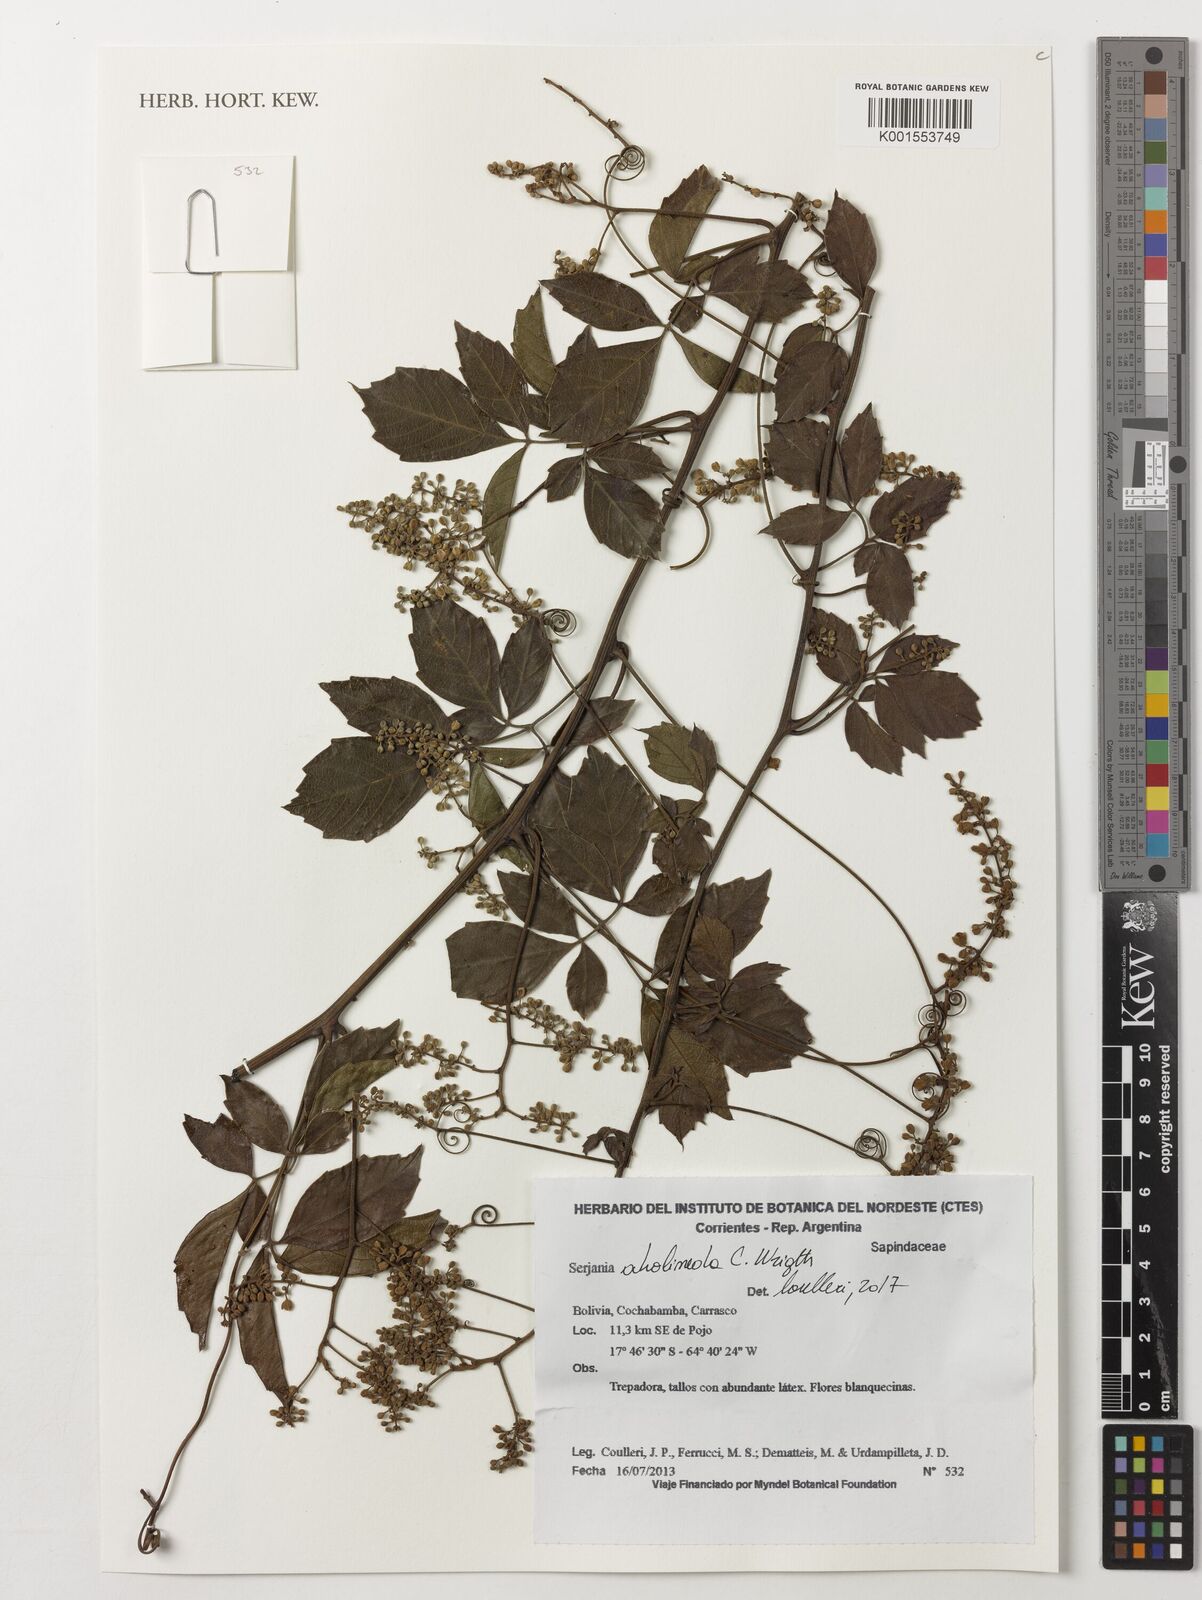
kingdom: Plantae
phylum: Tracheophyta
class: Magnoliopsida
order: Sapindales
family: Sapindaceae
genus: Serjania
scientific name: Serjania
